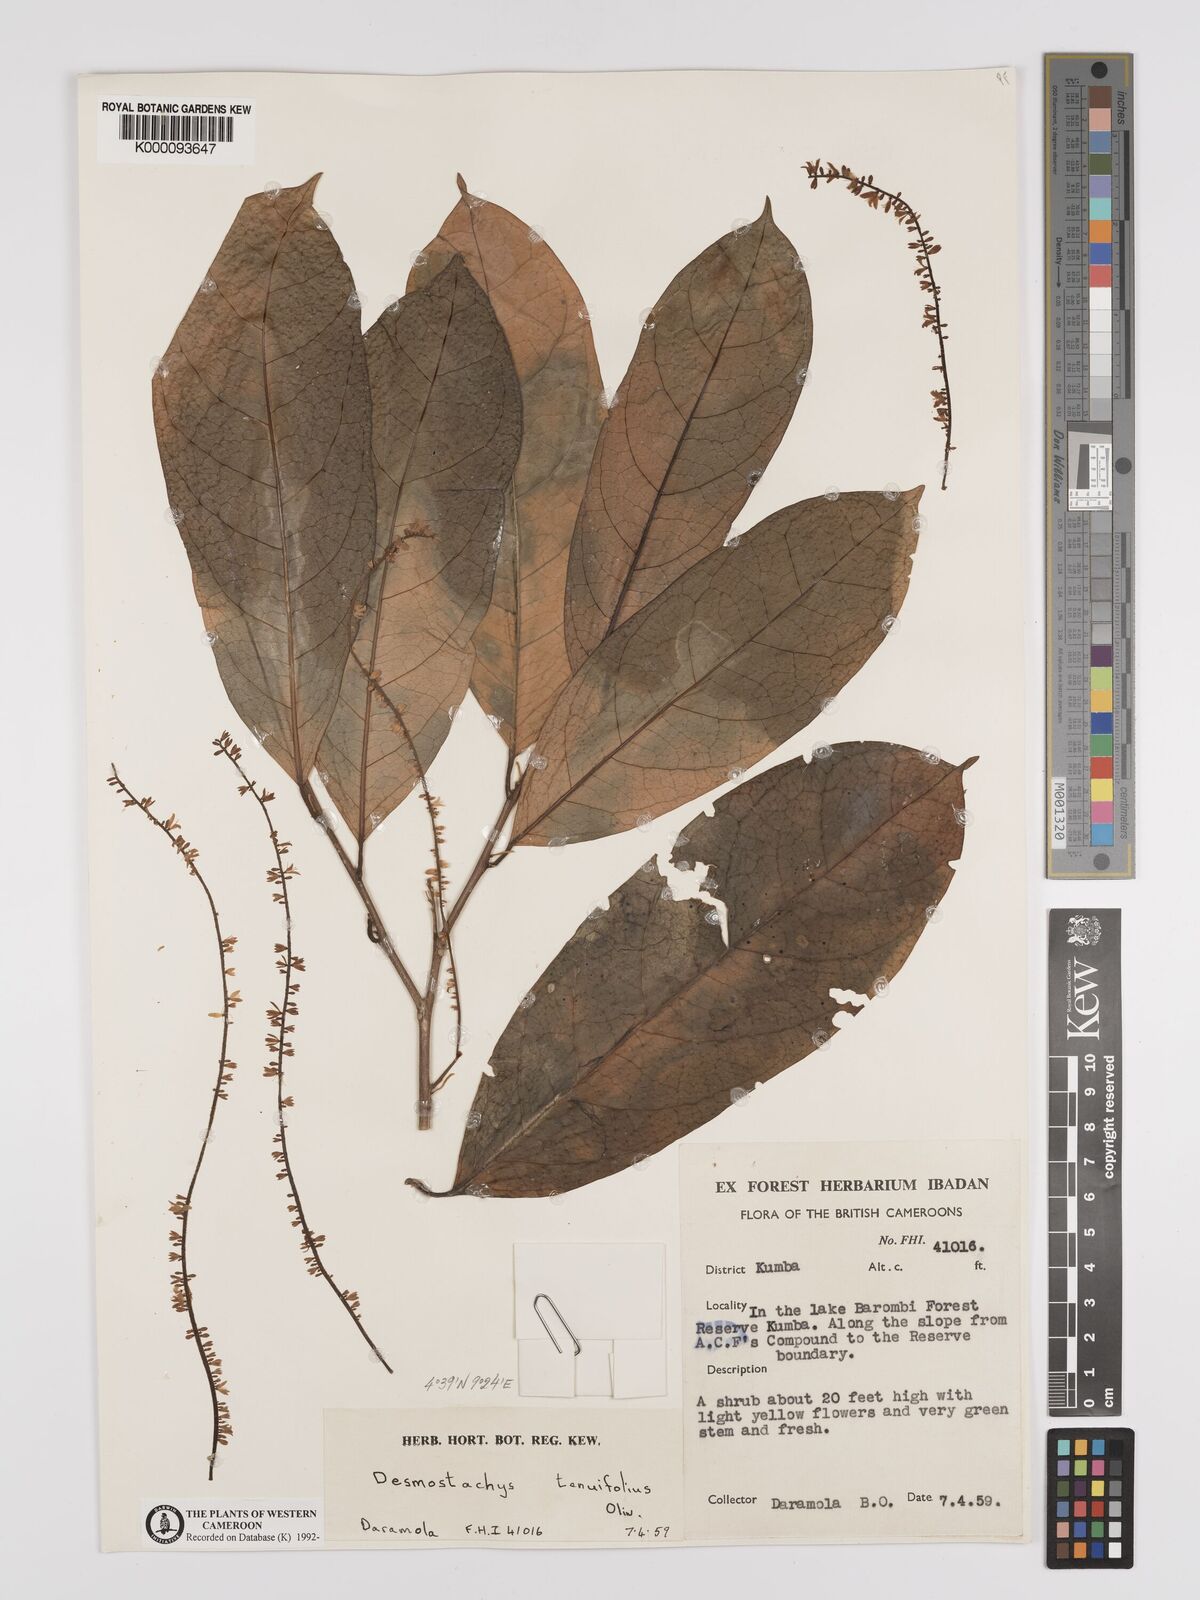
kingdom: Plantae
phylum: Tracheophyta
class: Magnoliopsida
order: Icacinales
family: Icacinaceae
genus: Vadensea
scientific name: Vadensea tenuifolia
